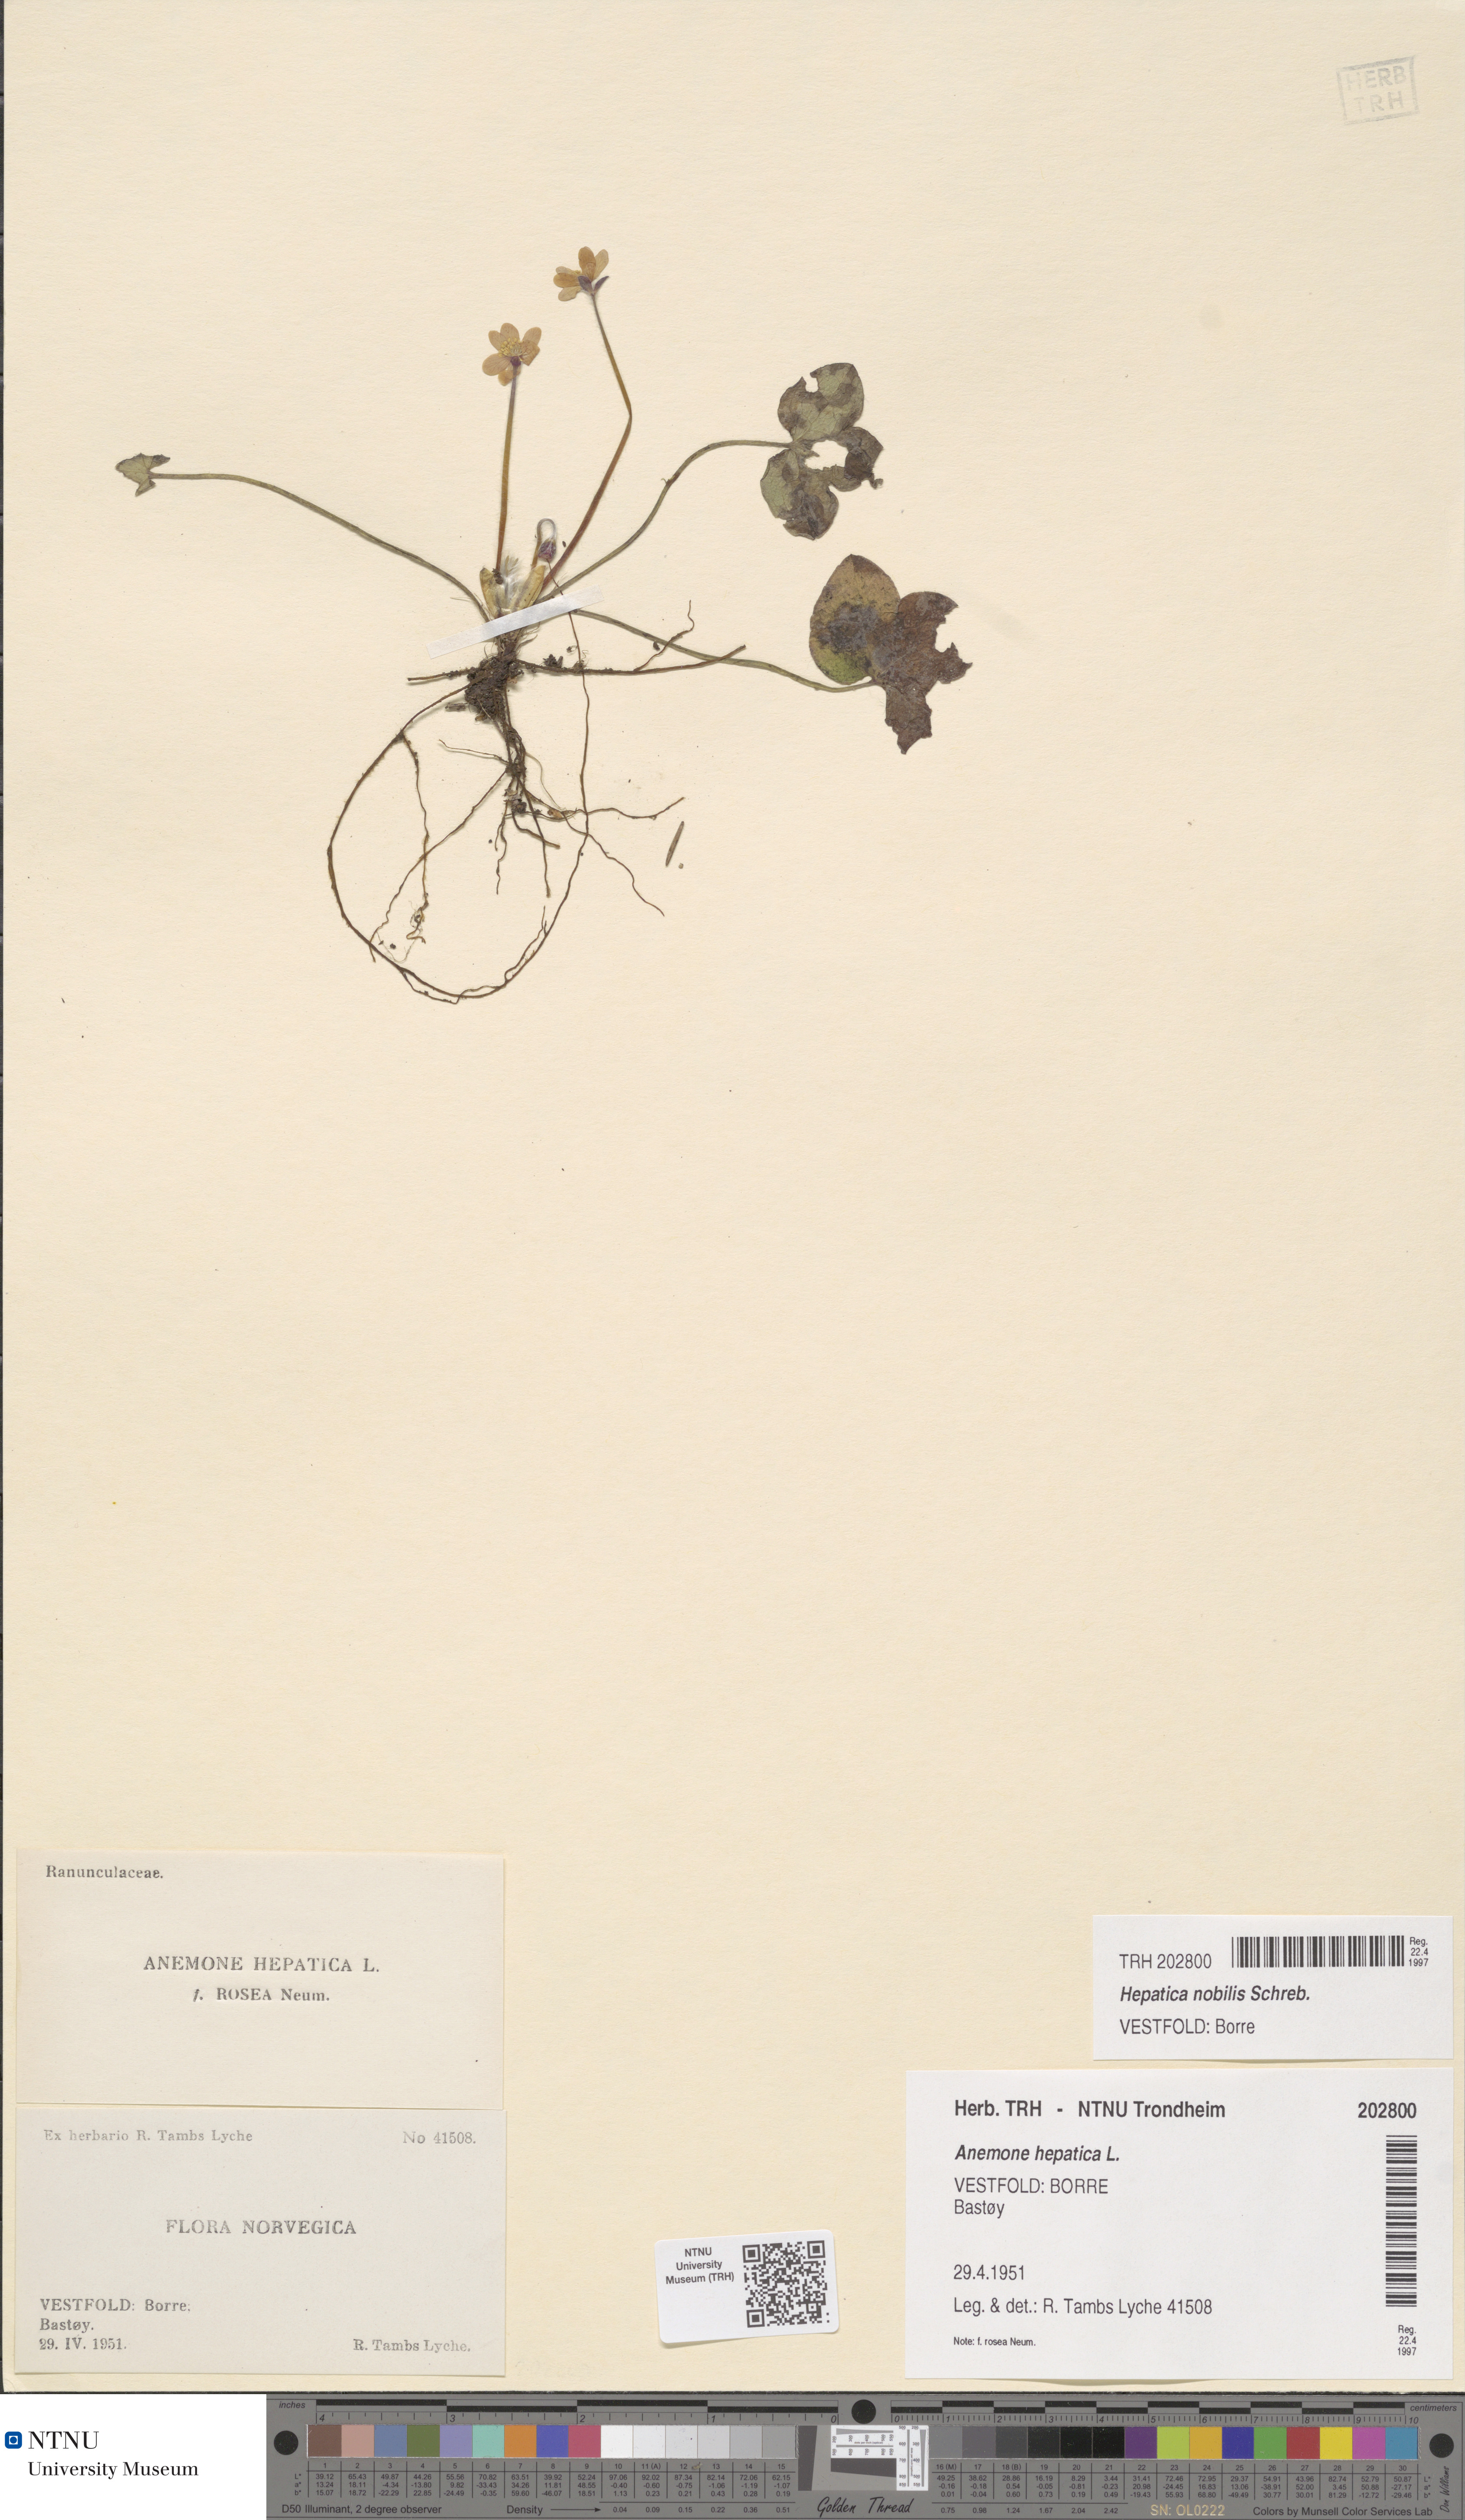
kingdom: Plantae
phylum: Tracheophyta
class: Magnoliopsida
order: Ranunculales
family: Ranunculaceae
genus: Hepatica
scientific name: Hepatica nobilis
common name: Liverleaf
